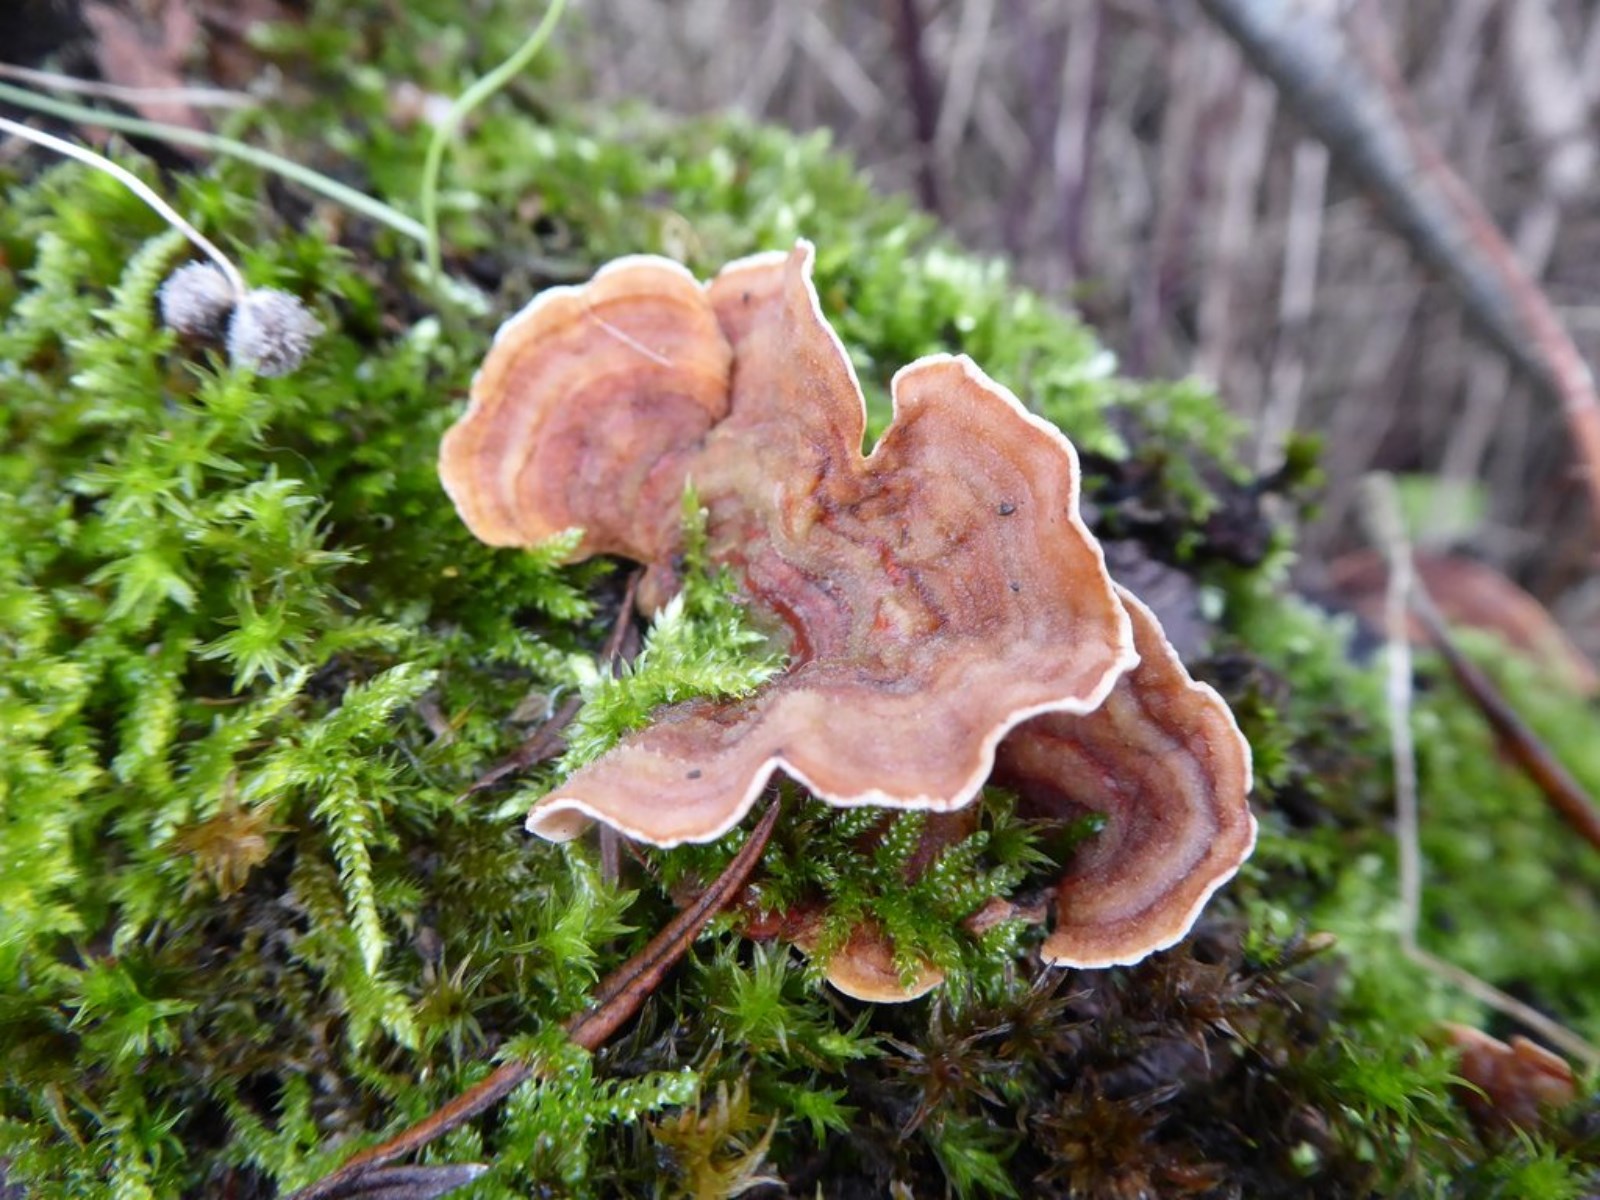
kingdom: Fungi
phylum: Basidiomycota
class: Agaricomycetes
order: Russulales
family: Stereaceae
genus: Stereum
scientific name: Stereum subtomentosum
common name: smuk lædersvamp
